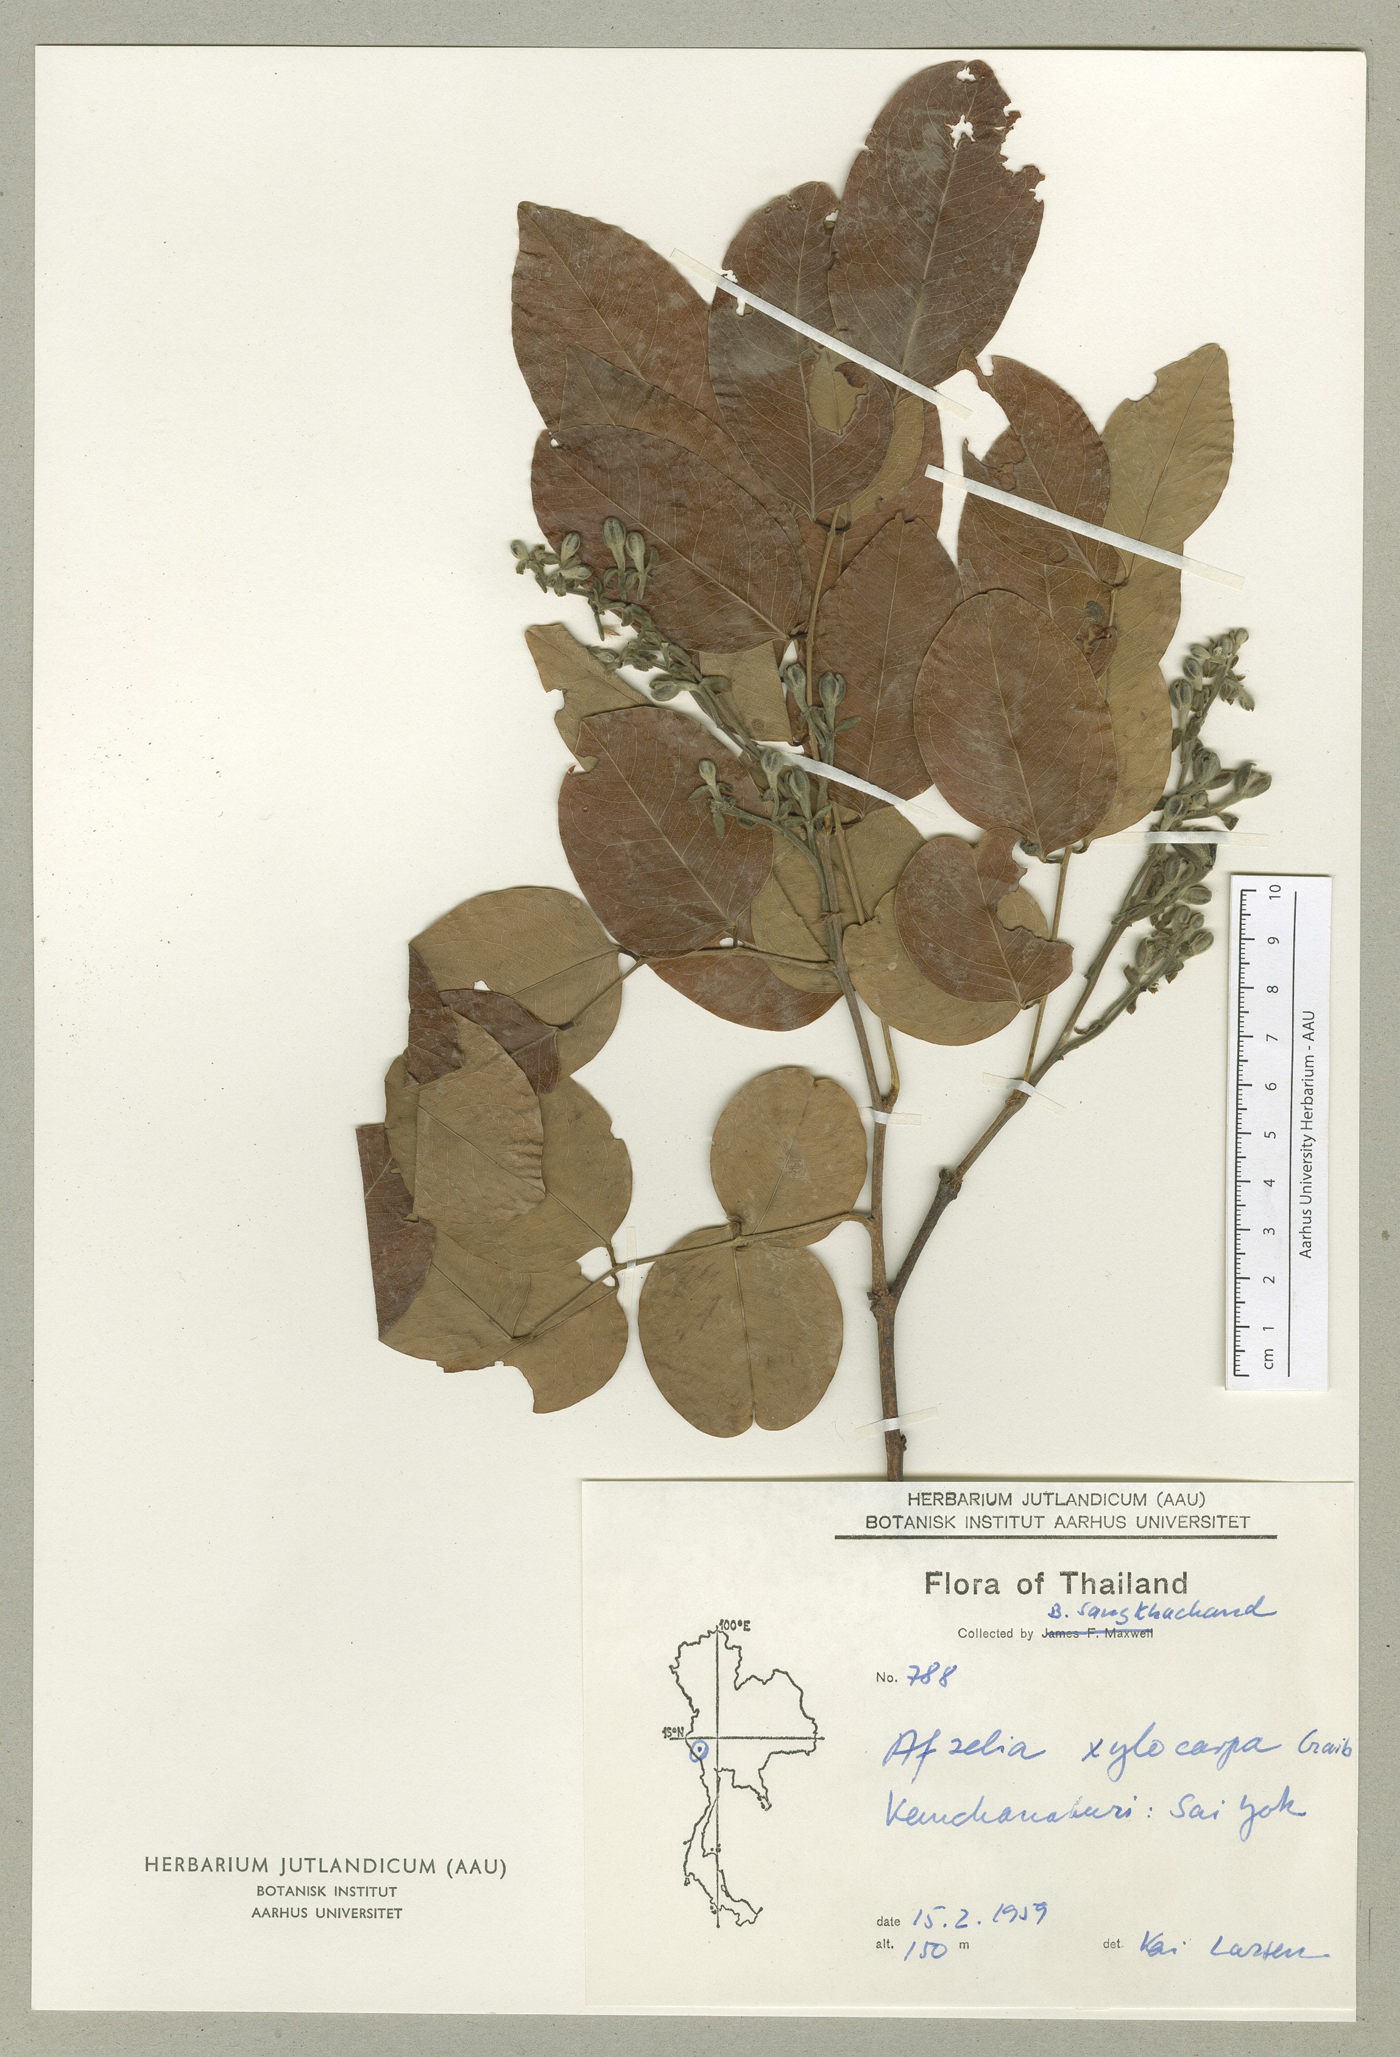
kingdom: Plantae
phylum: Tracheophyta
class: Magnoliopsida
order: Fabales
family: Fabaceae
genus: Afzelia
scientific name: Afzelia xylocarpa
